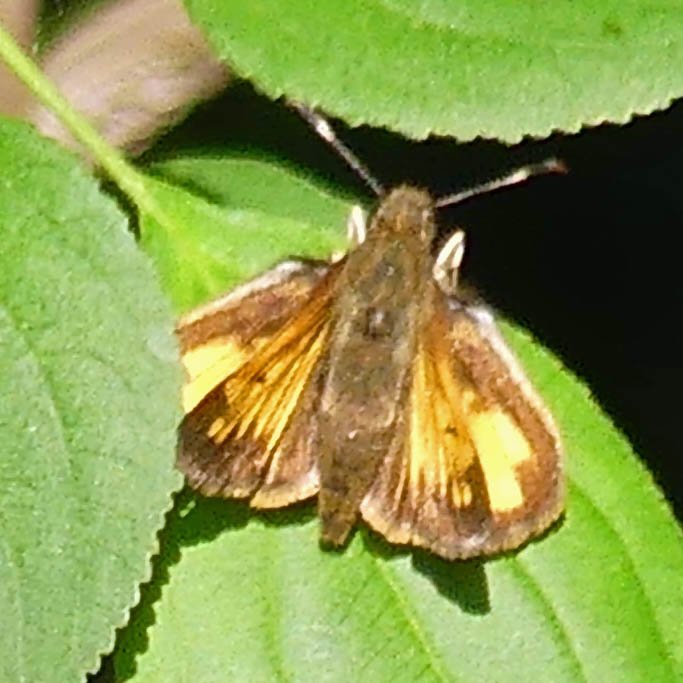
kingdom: Animalia
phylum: Arthropoda
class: Insecta
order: Lepidoptera
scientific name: Lepidoptera
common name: Butterflies
